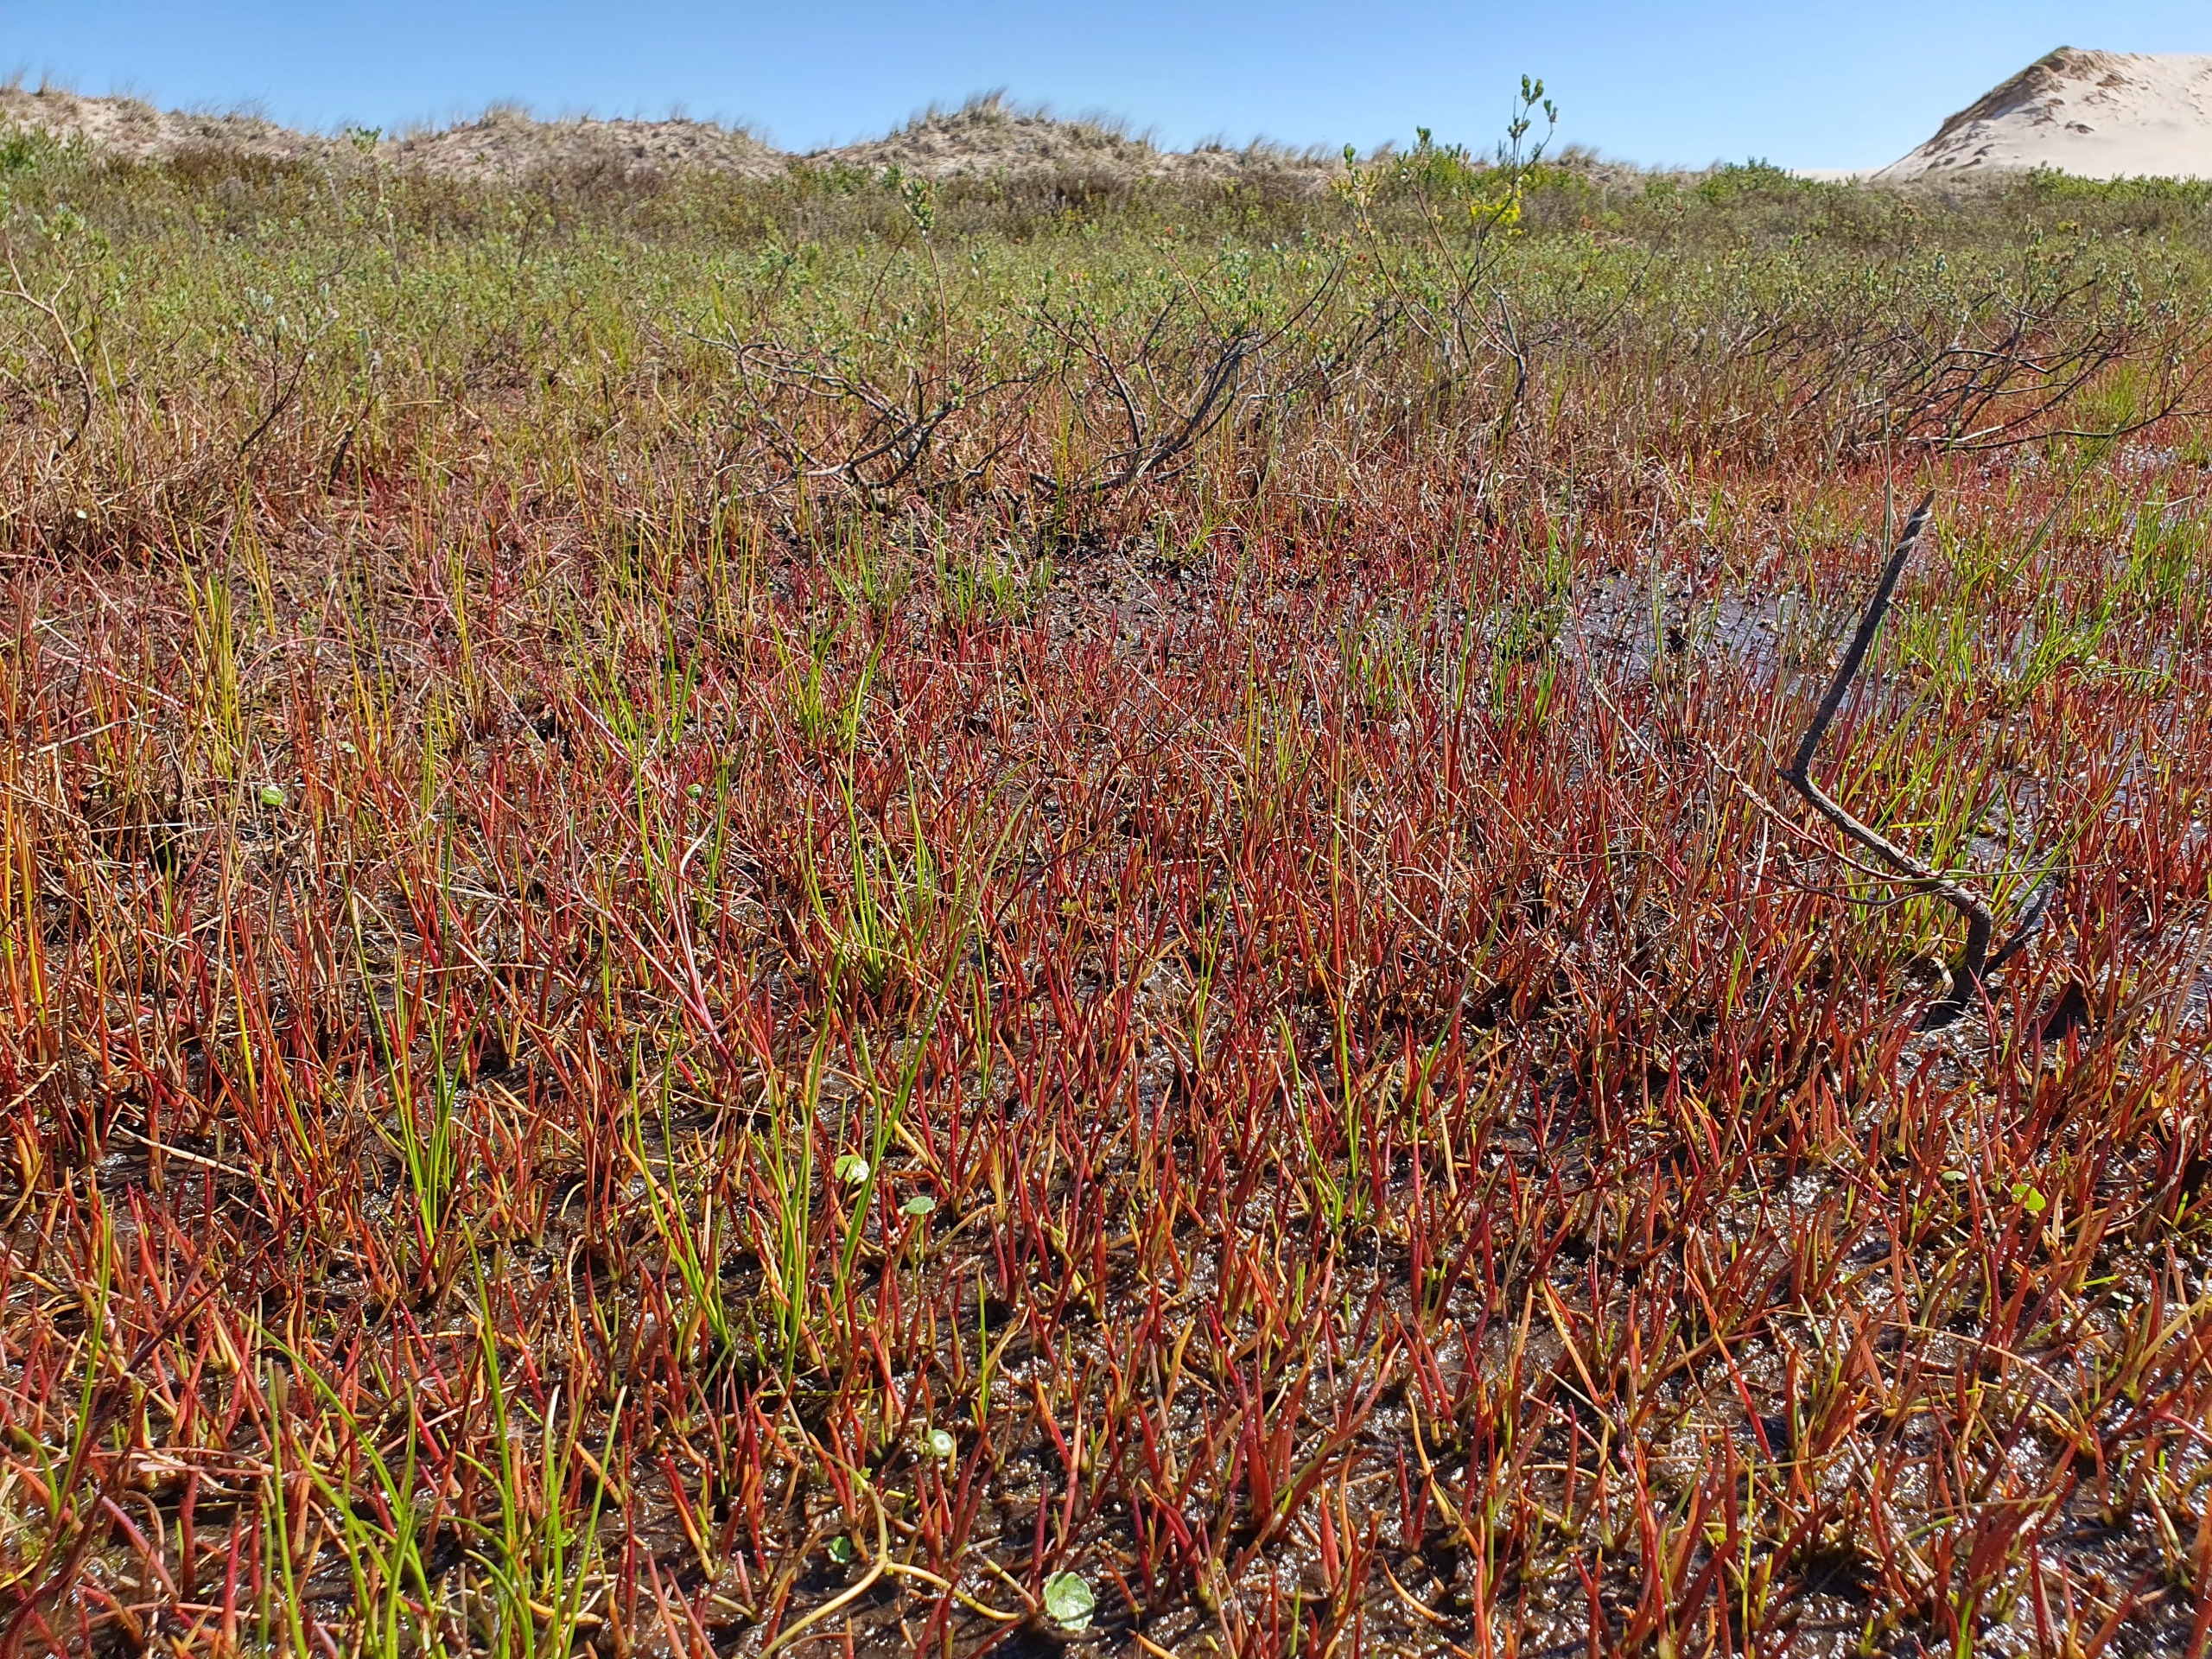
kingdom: Plantae
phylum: Tracheophyta
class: Magnoliopsida
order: Lamiales
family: Plantaginaceae
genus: Littorella
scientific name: Littorella uniflora
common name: Strandbo
